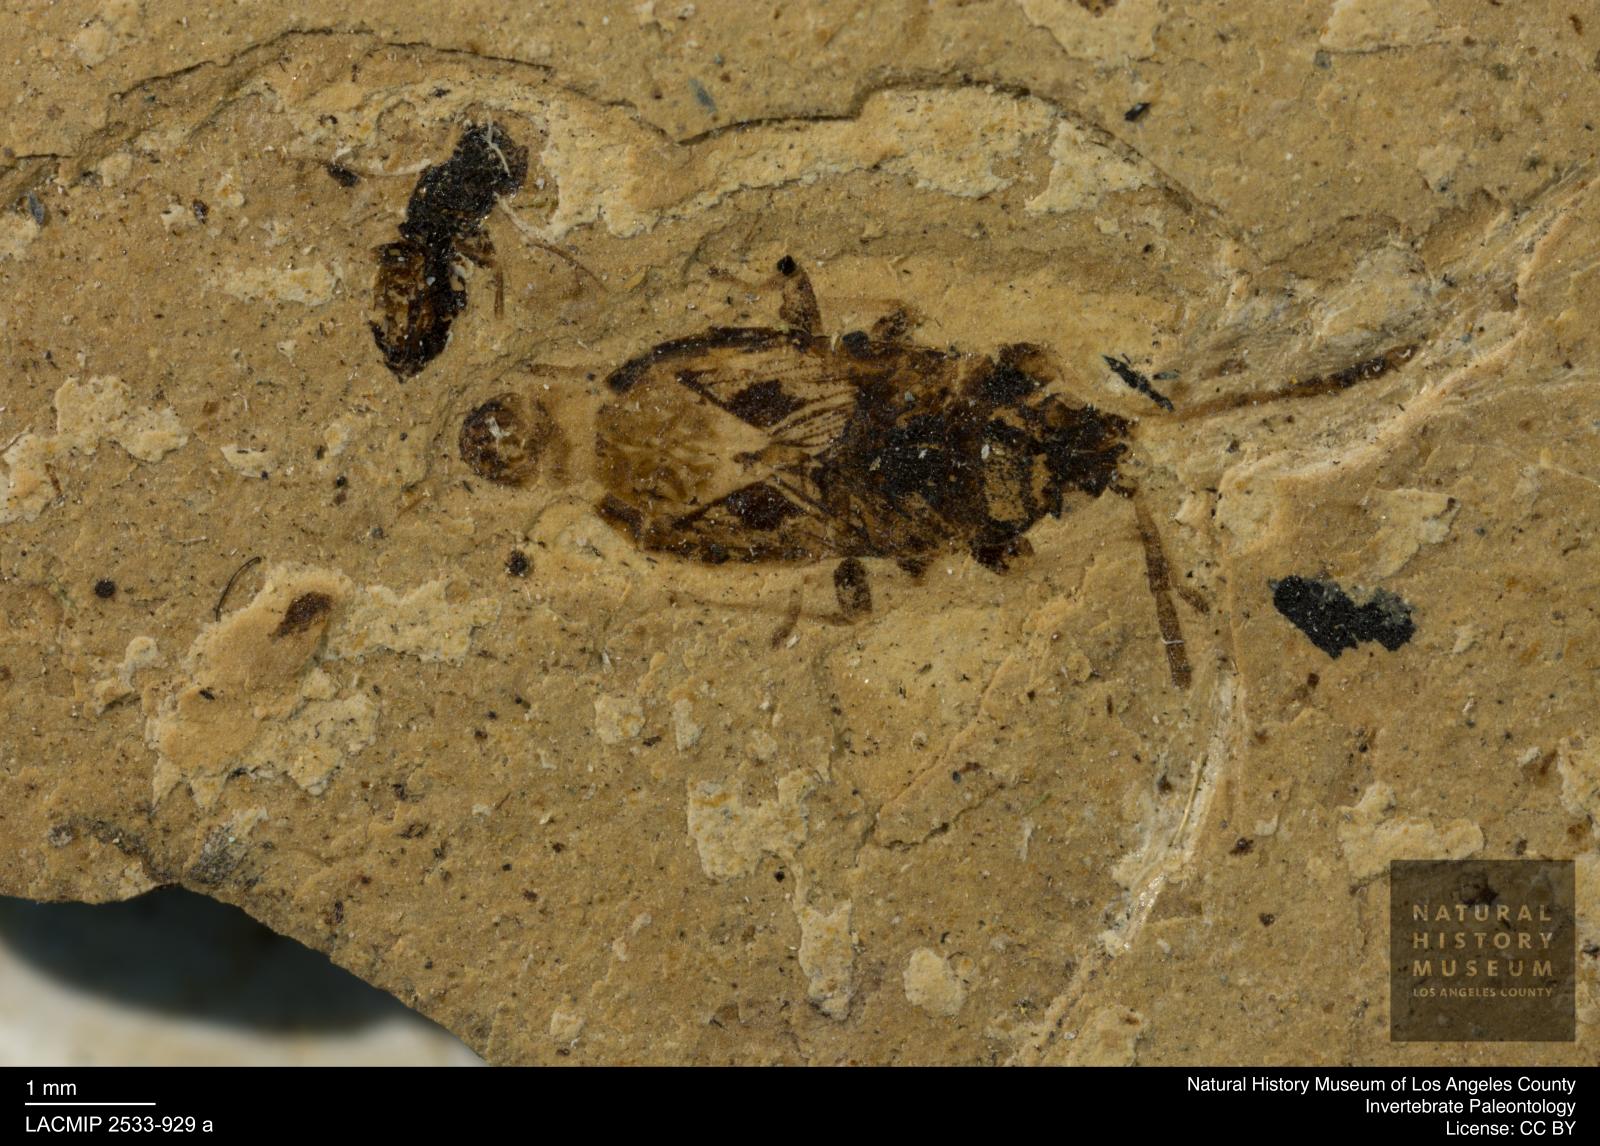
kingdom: Animalia
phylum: Arthropoda
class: Insecta
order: Hemiptera
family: Rhyparochromidae
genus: Raglius
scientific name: Raglius pulchellus
